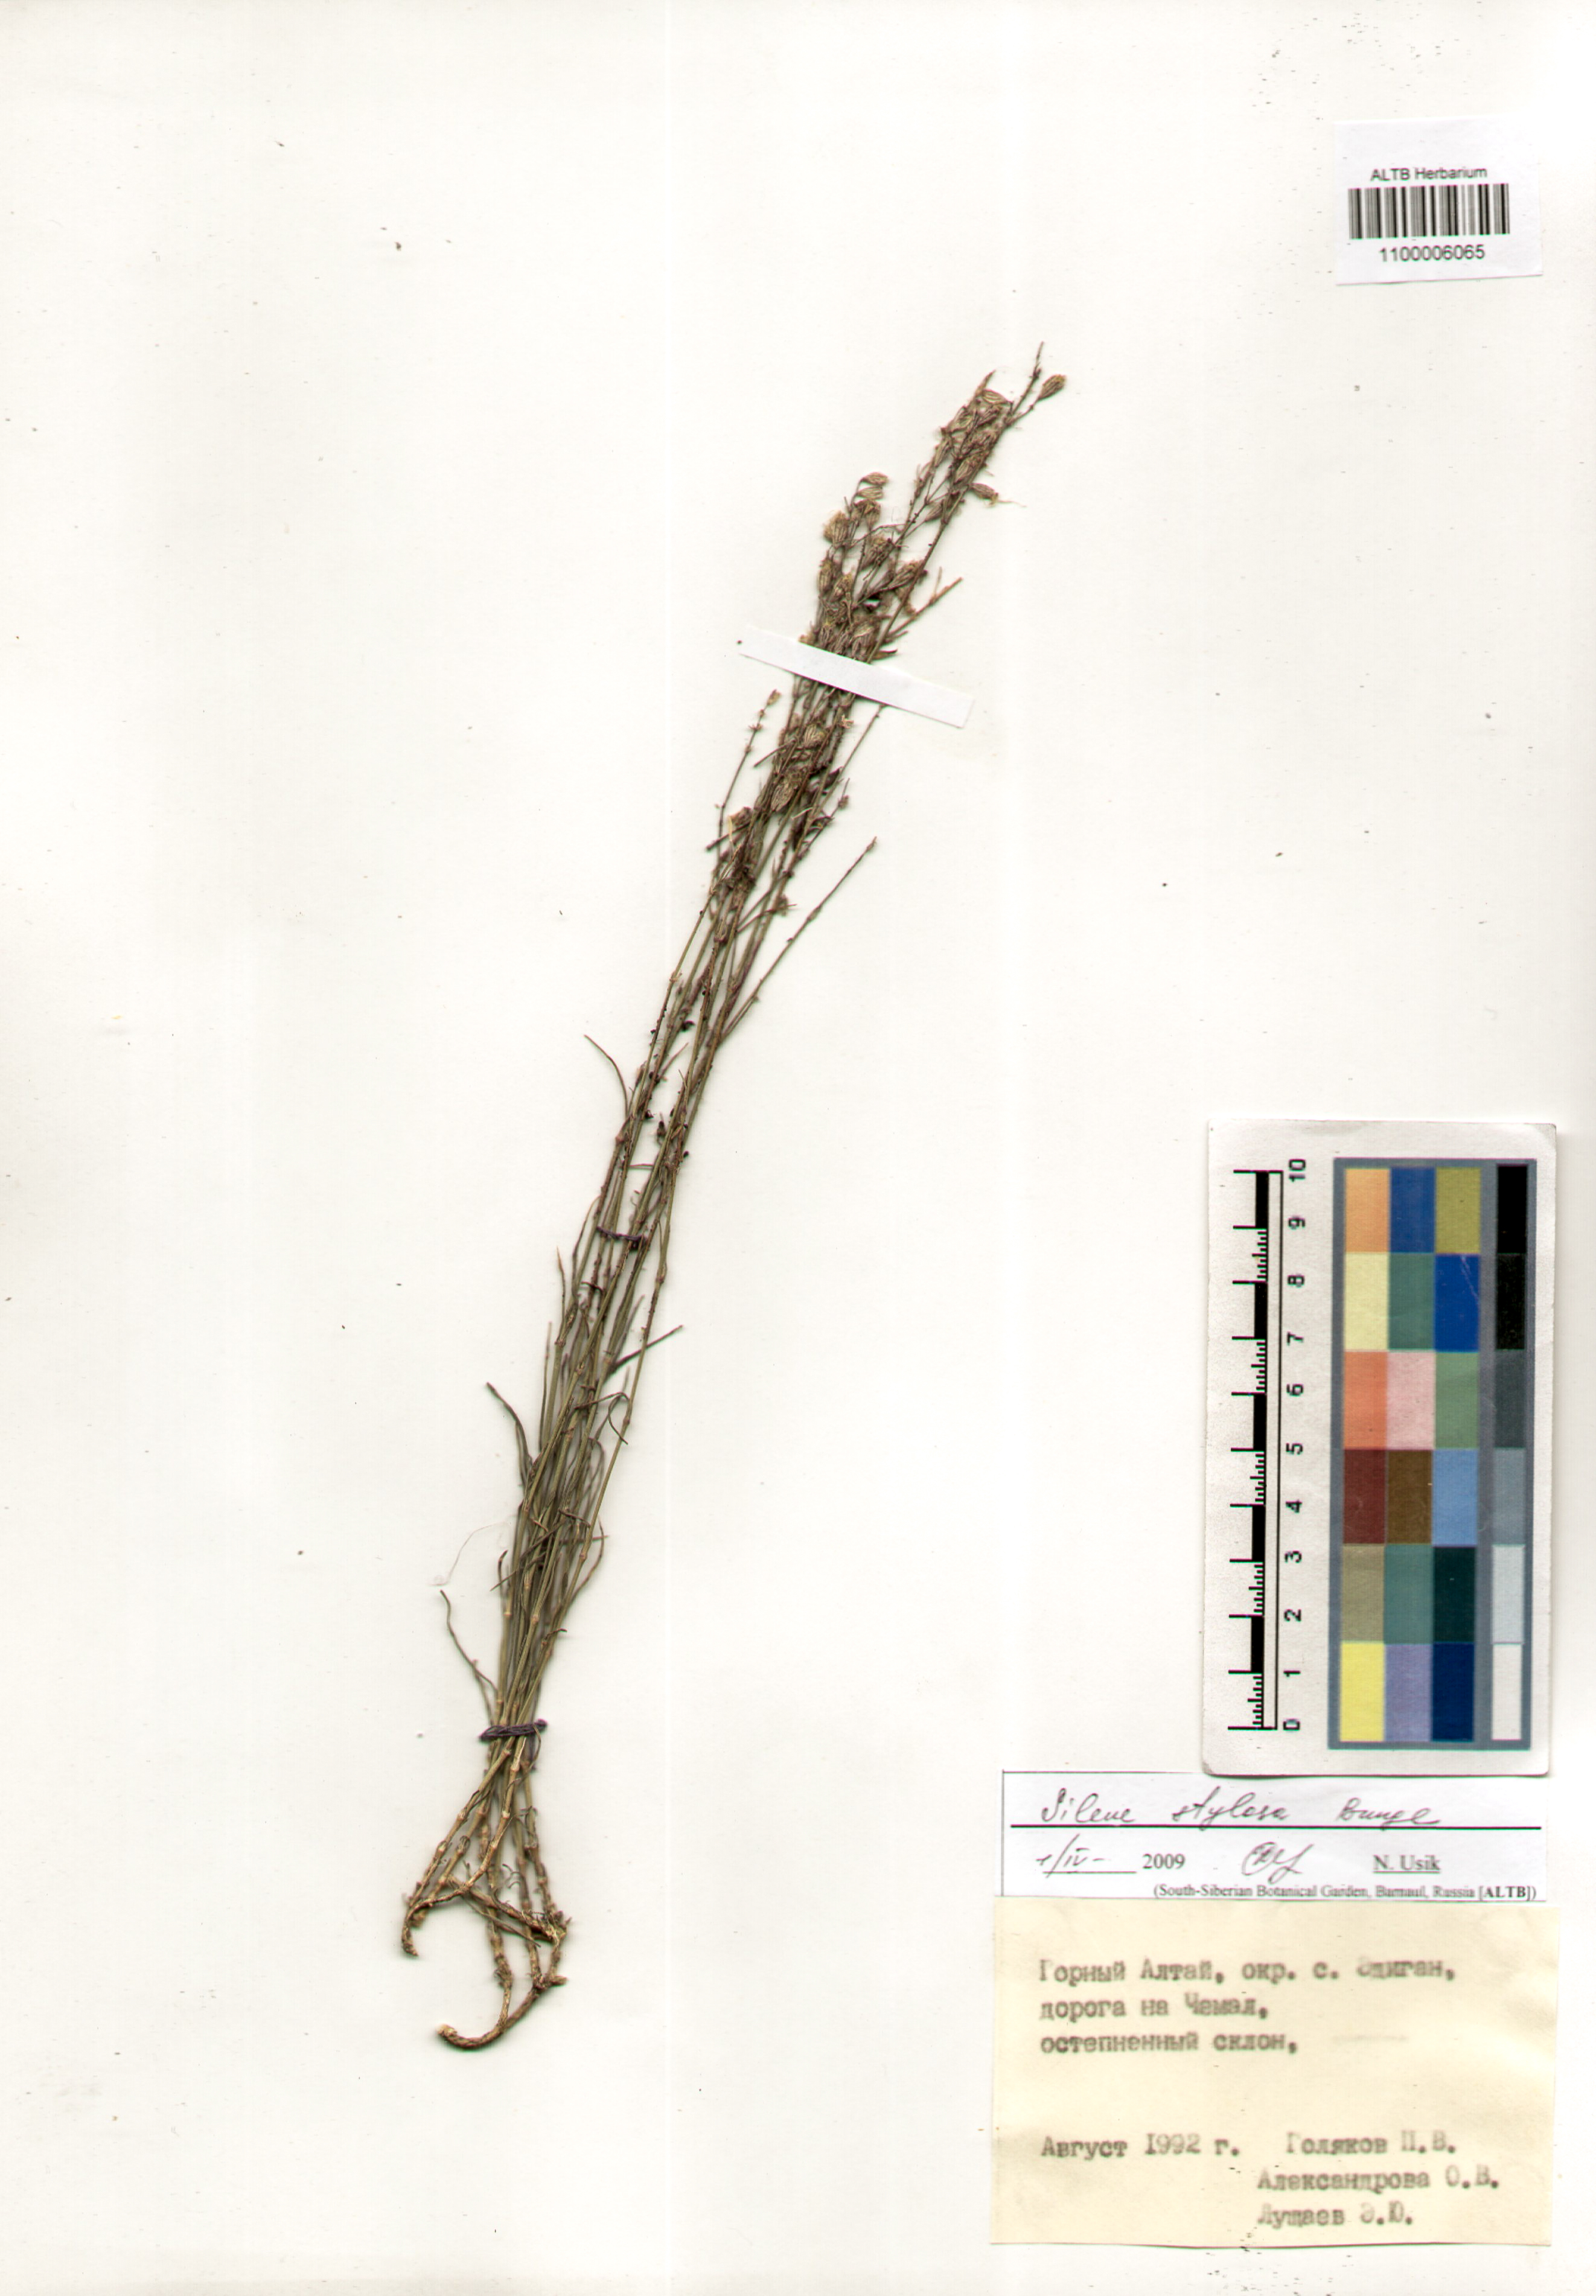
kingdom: Plantae
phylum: Tracheophyta
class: Magnoliopsida
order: Caryophyllales
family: Caryophyllaceae
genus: Silene
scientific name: Silene graminifolia
